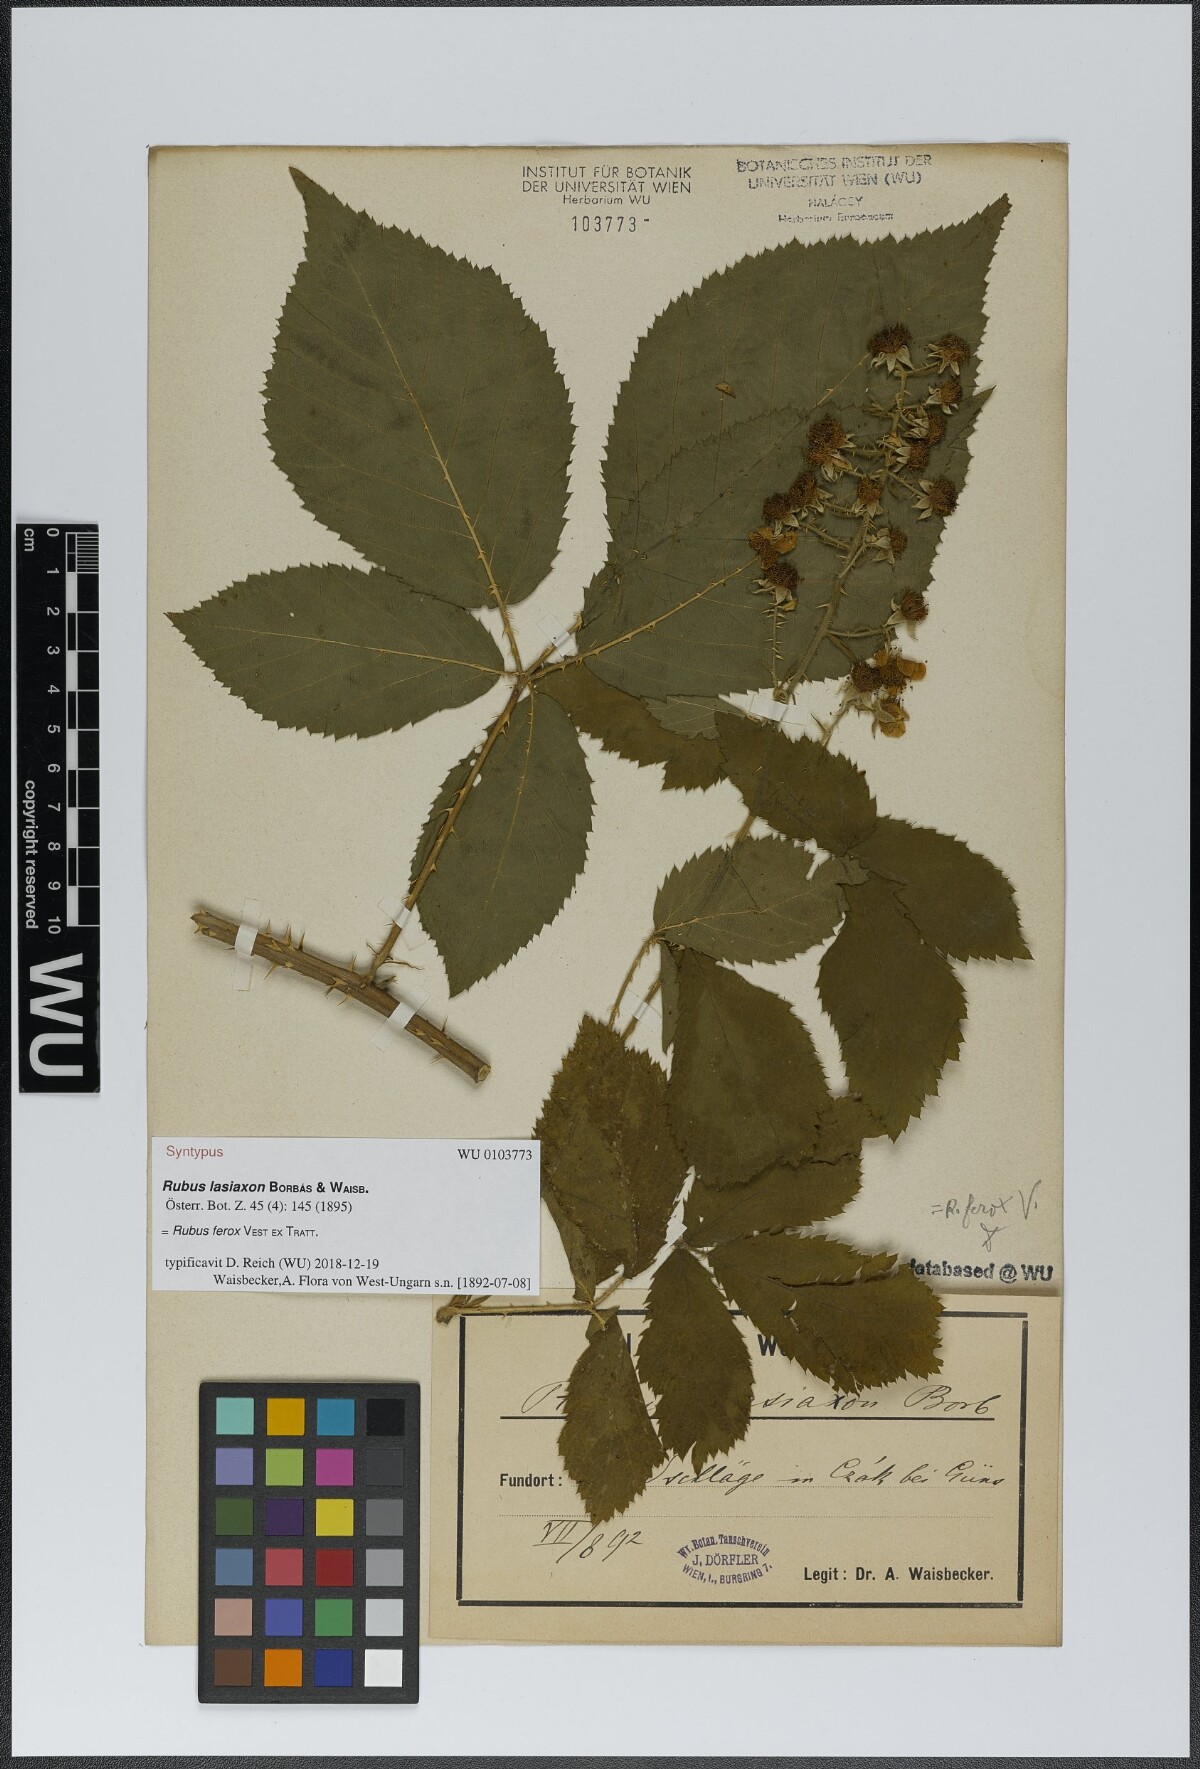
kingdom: Plantae
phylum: Tracheophyta
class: Magnoliopsida
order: Rosales
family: Rosaceae
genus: Rubus
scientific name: Rubus ferox
